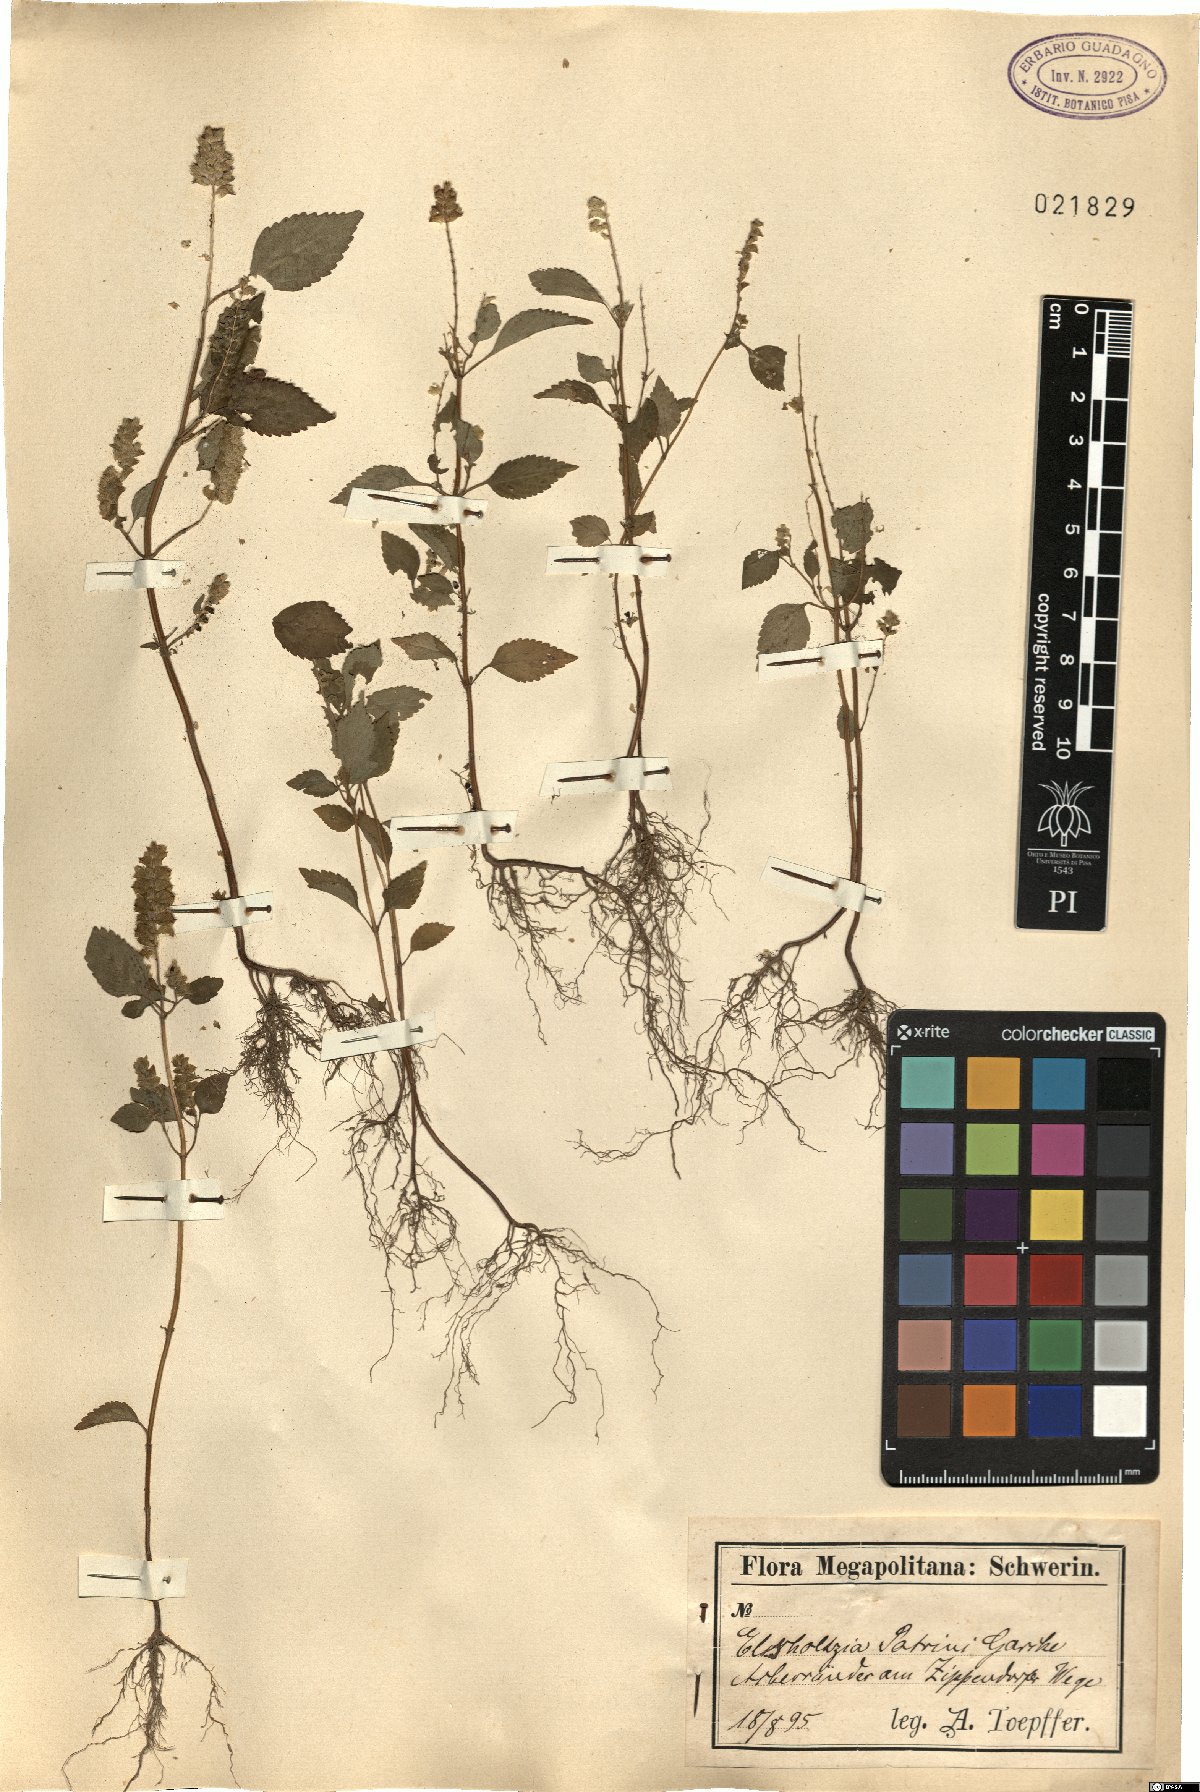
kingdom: Plantae
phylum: Tracheophyta
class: Magnoliopsida
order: Lamiales
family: Lamiaceae
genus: Elsholtzia
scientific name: Elsholtzia ciliata
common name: Ciliate elsholtzia
